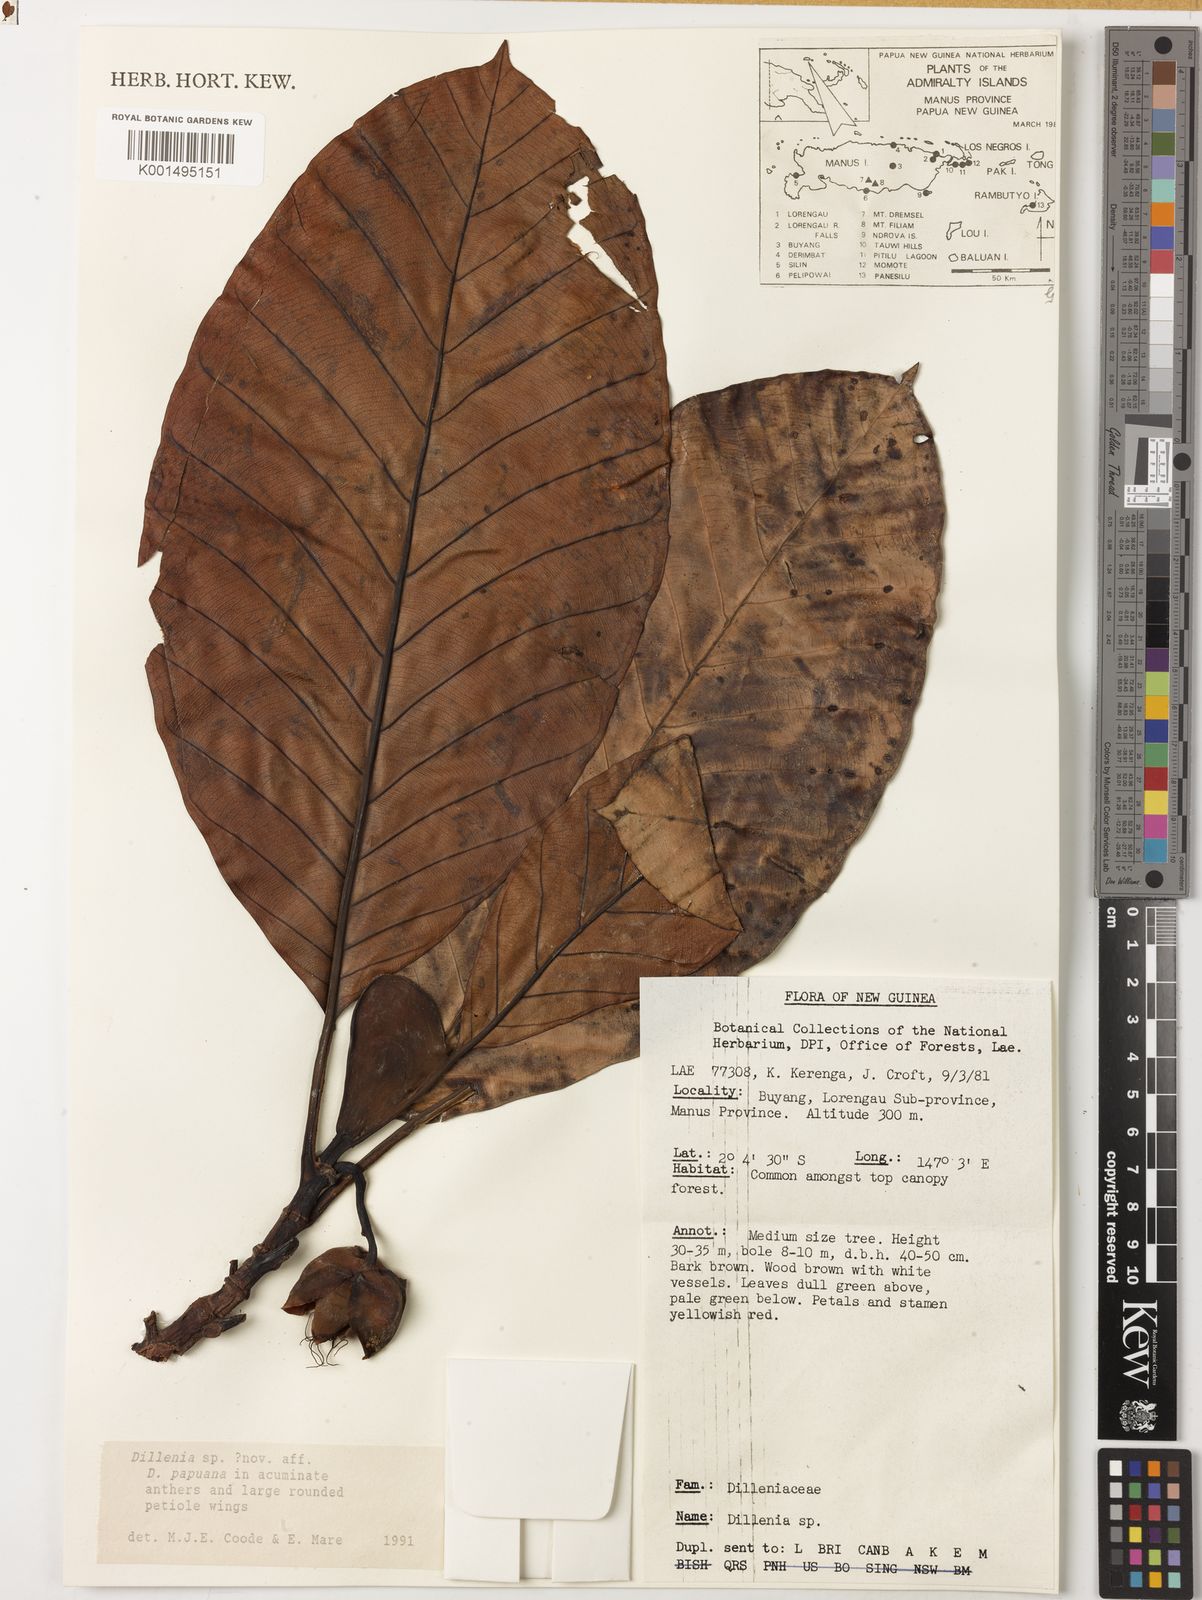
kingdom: Plantae
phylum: Tracheophyta
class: Magnoliopsida
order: Dilleniales
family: Dilleniaceae
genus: Dillenia
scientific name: Dillenia
